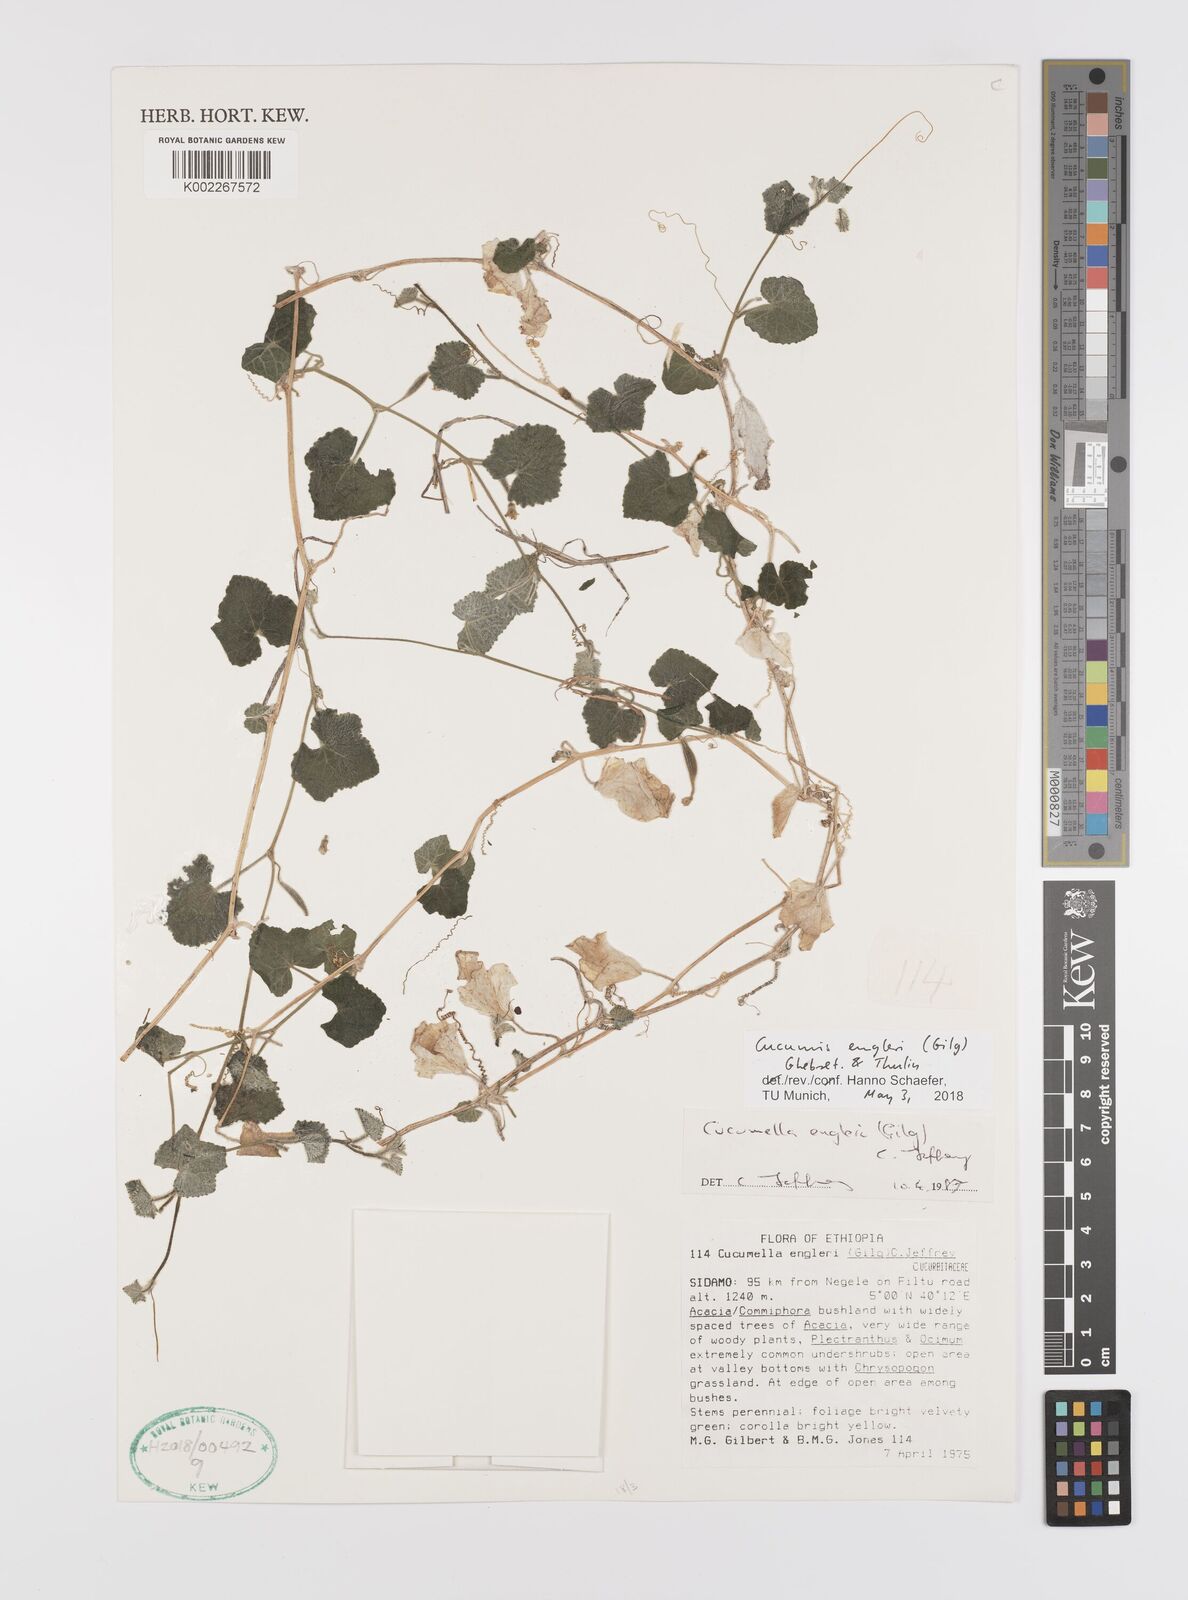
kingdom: Plantae
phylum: Tracheophyta
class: Magnoliopsida
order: Cucurbitales
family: Cucurbitaceae
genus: Cucumis
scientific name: Cucumis engleri
